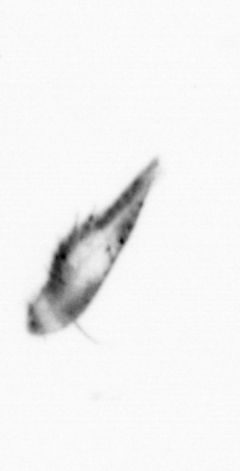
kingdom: Animalia
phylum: Arthropoda
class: Copepoda
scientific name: Copepoda
